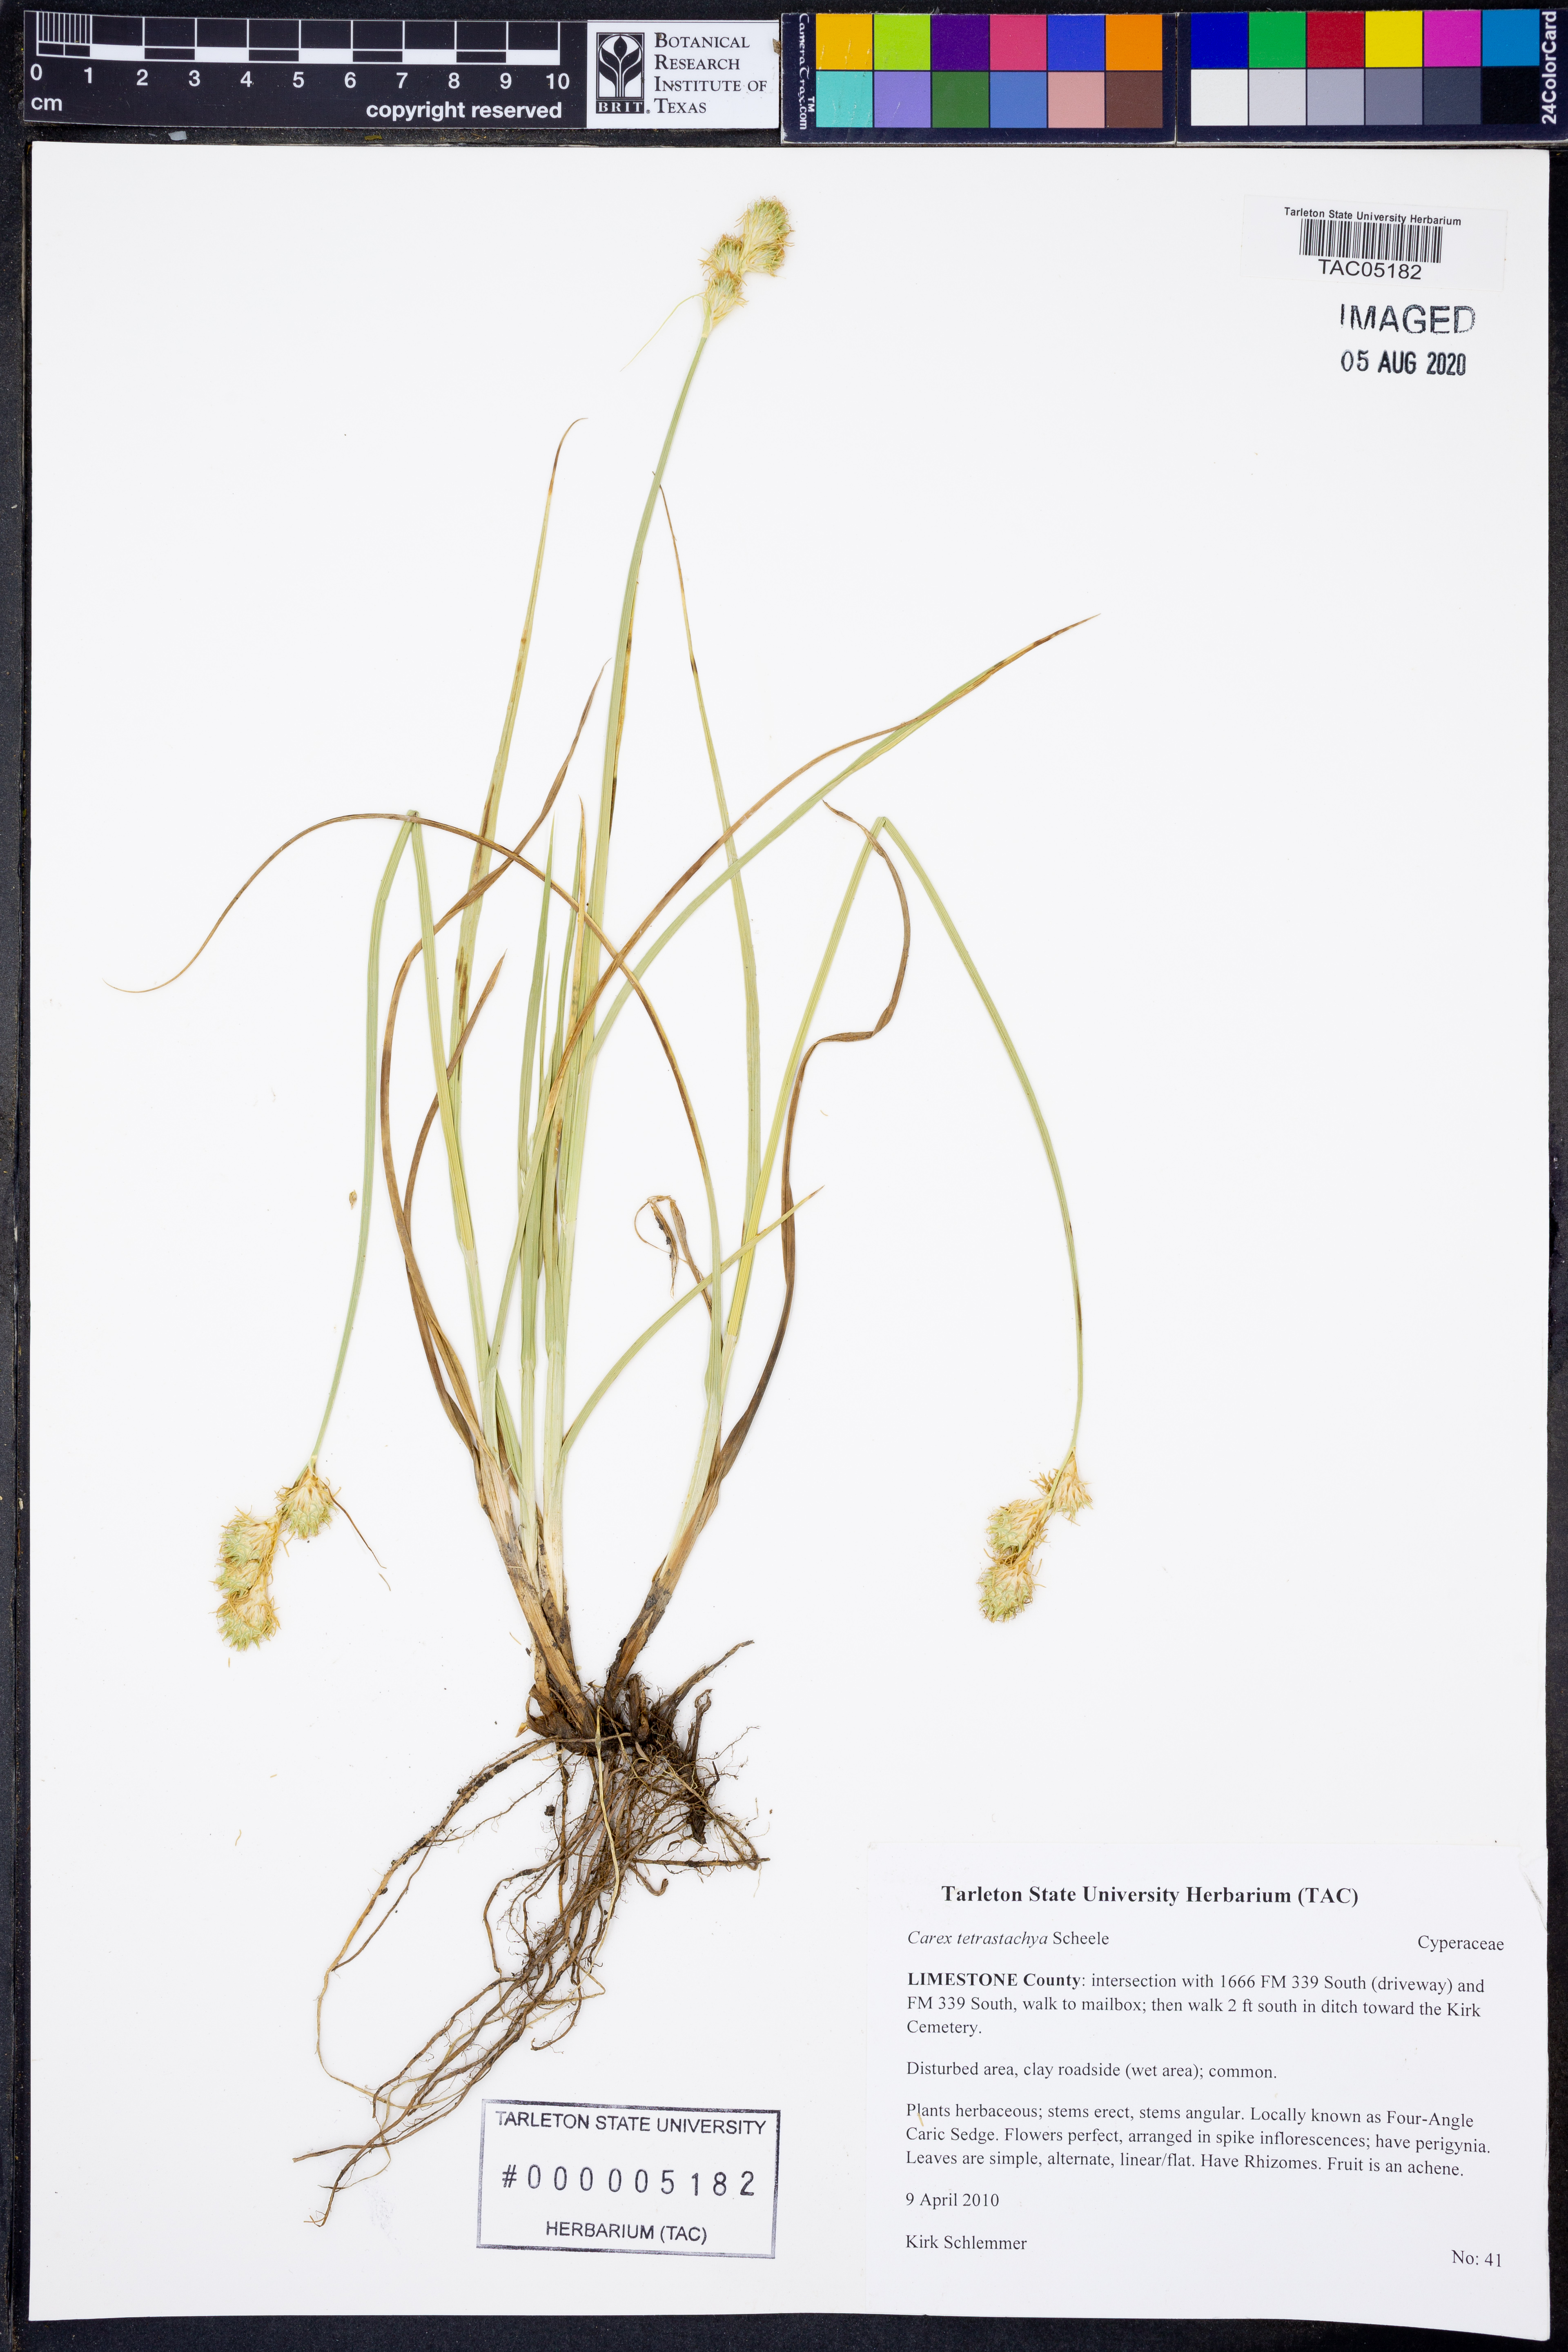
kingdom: Plantae
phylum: Tracheophyta
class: Liliopsida
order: Poales
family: Cyperaceae
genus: Carex
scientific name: Carex tetrastachya
